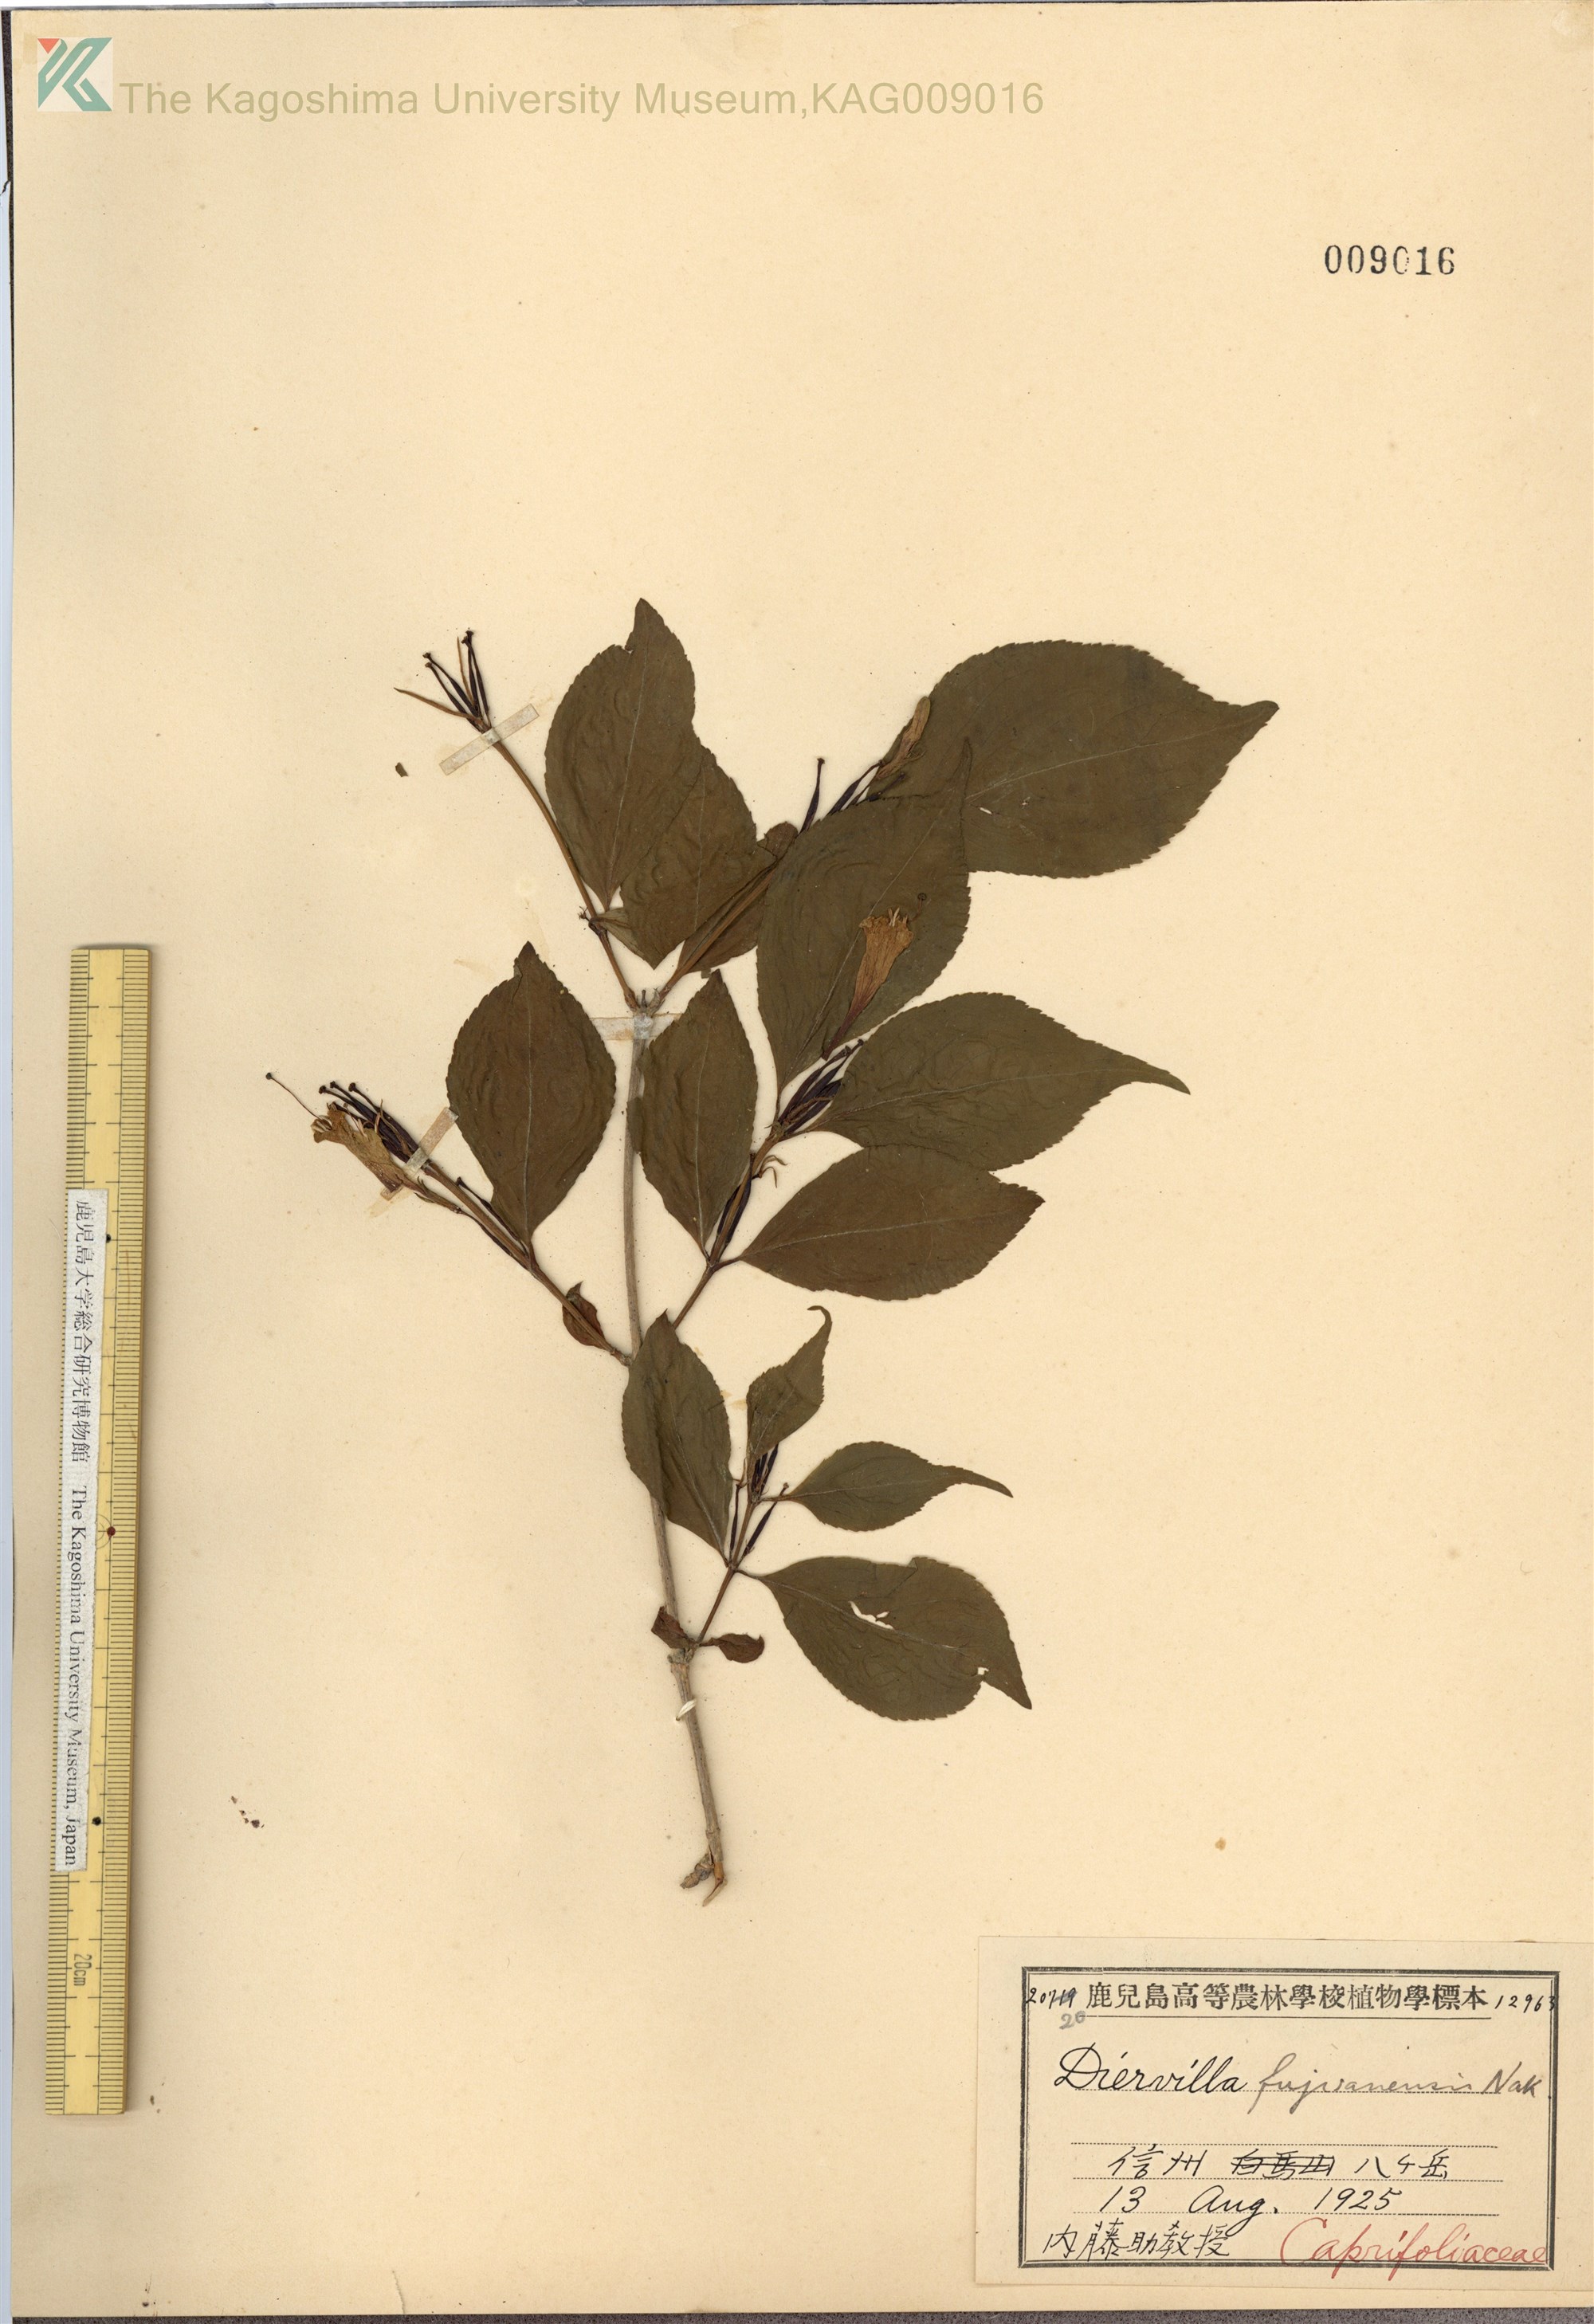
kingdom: Plantae
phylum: Tracheophyta
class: Magnoliopsida
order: Dipsacales
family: Caprifoliaceae
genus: Weigela
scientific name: Weigela decora
